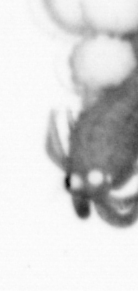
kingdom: Animalia
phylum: Annelida
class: Polychaeta
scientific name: Polychaeta
